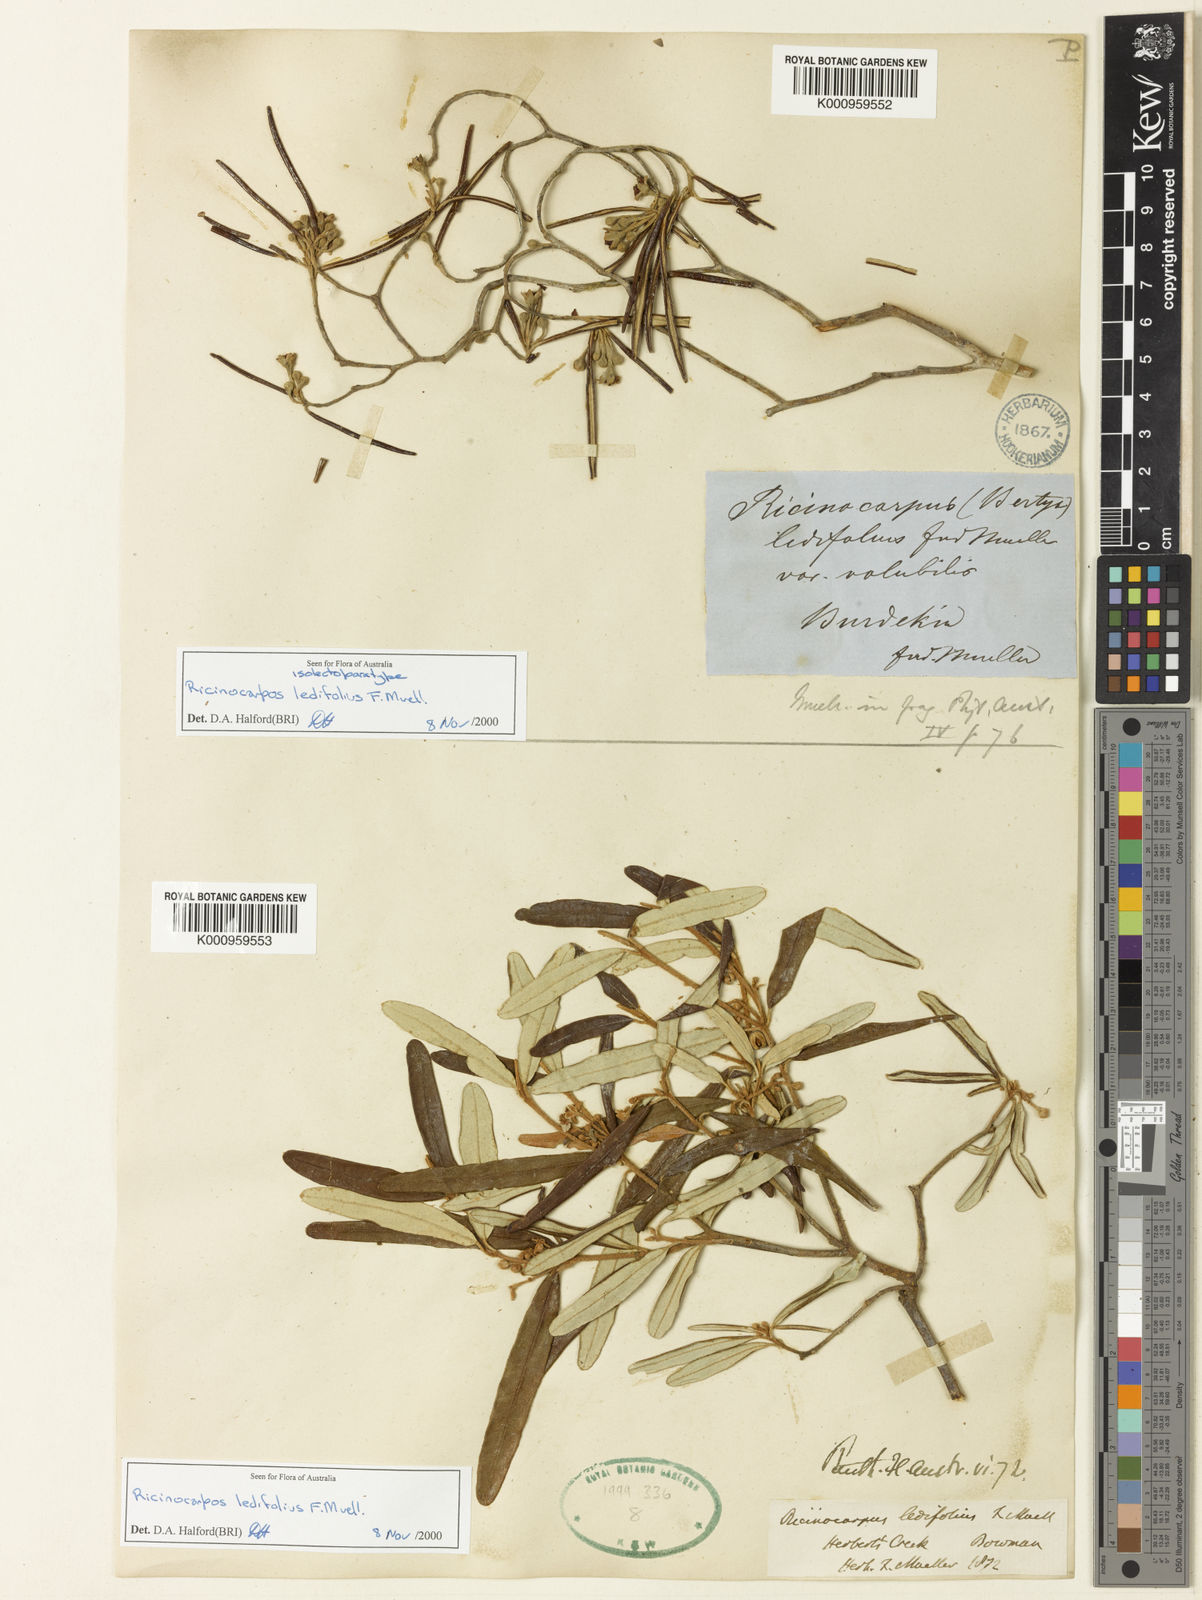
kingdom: Plantae
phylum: Tracheophyta
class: Magnoliopsida
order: Malpighiales
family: Euphorbiaceae
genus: Ricinocarpos
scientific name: Ricinocarpos ledifolius
